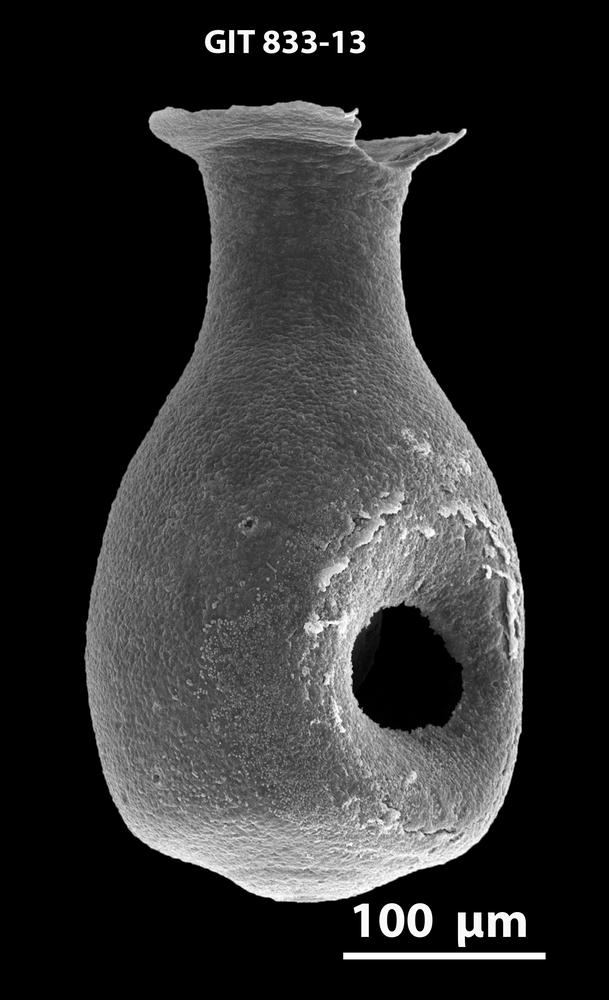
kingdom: Animalia
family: Lagenochitinidae
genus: Lagenochitina
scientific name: Lagenochitina
